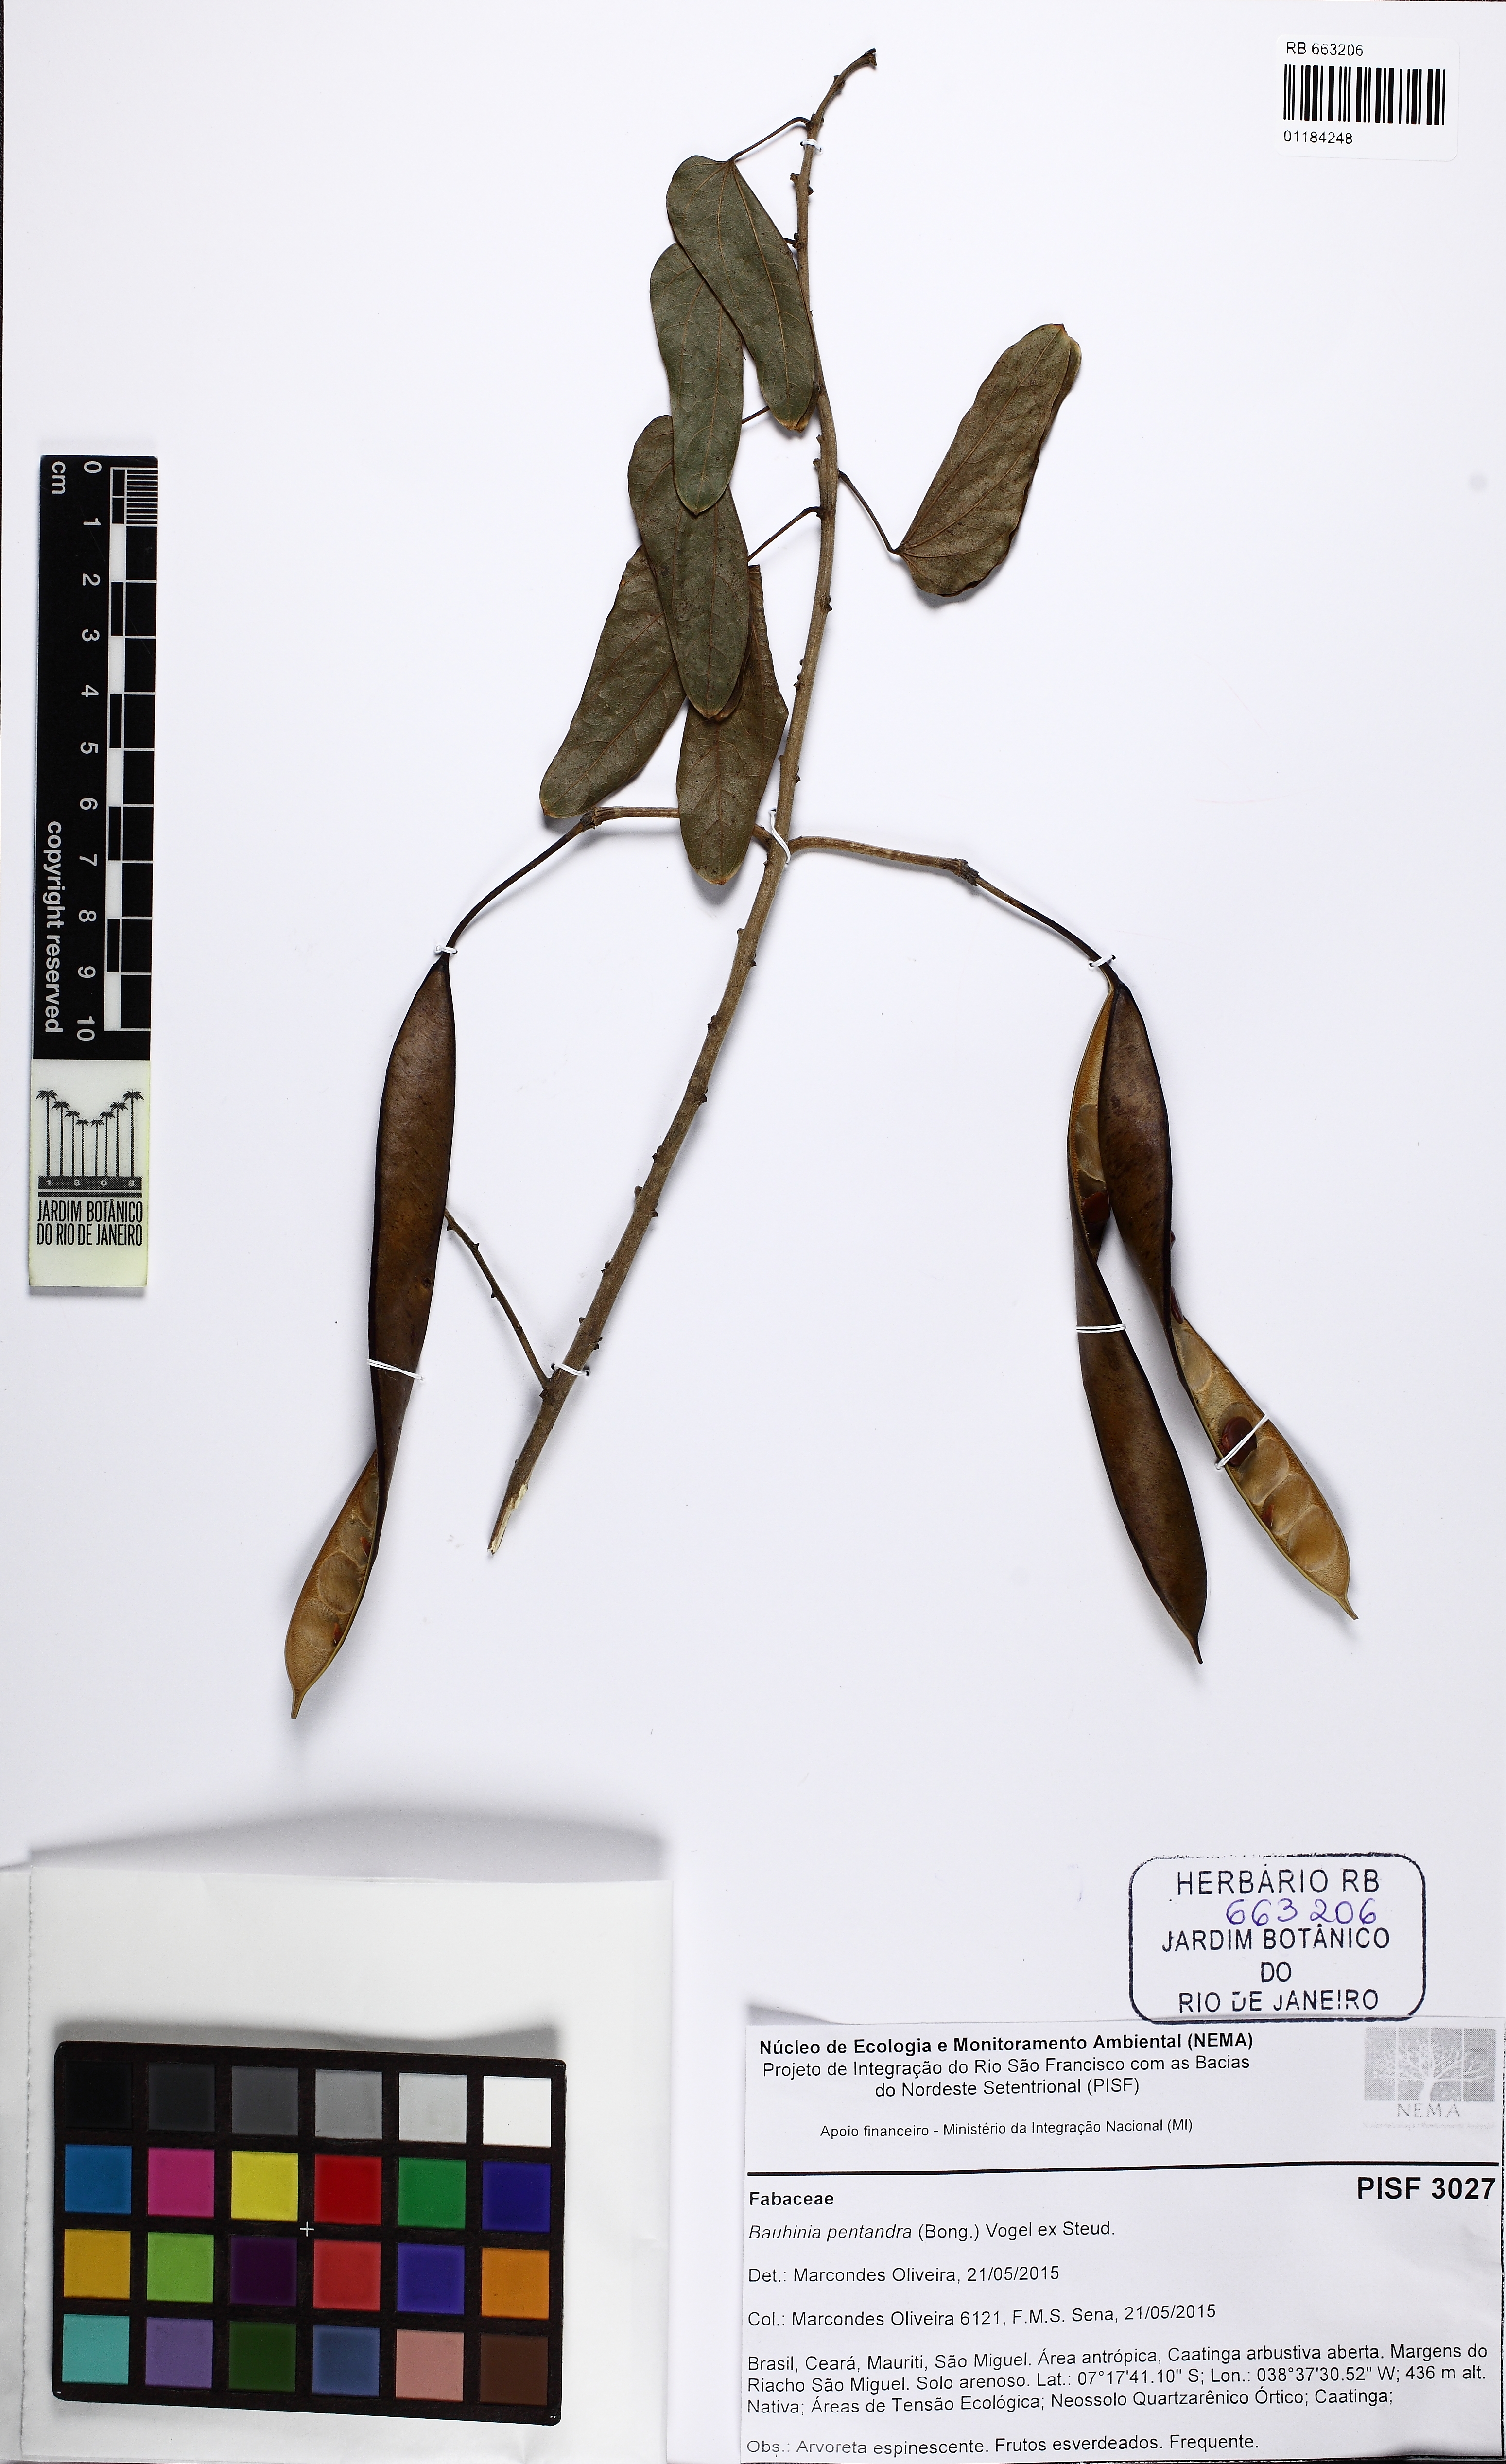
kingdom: Plantae
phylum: Tracheophyta
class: Magnoliopsida
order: Fabales
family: Fabaceae
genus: Bauhinia
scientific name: Bauhinia pentandra
